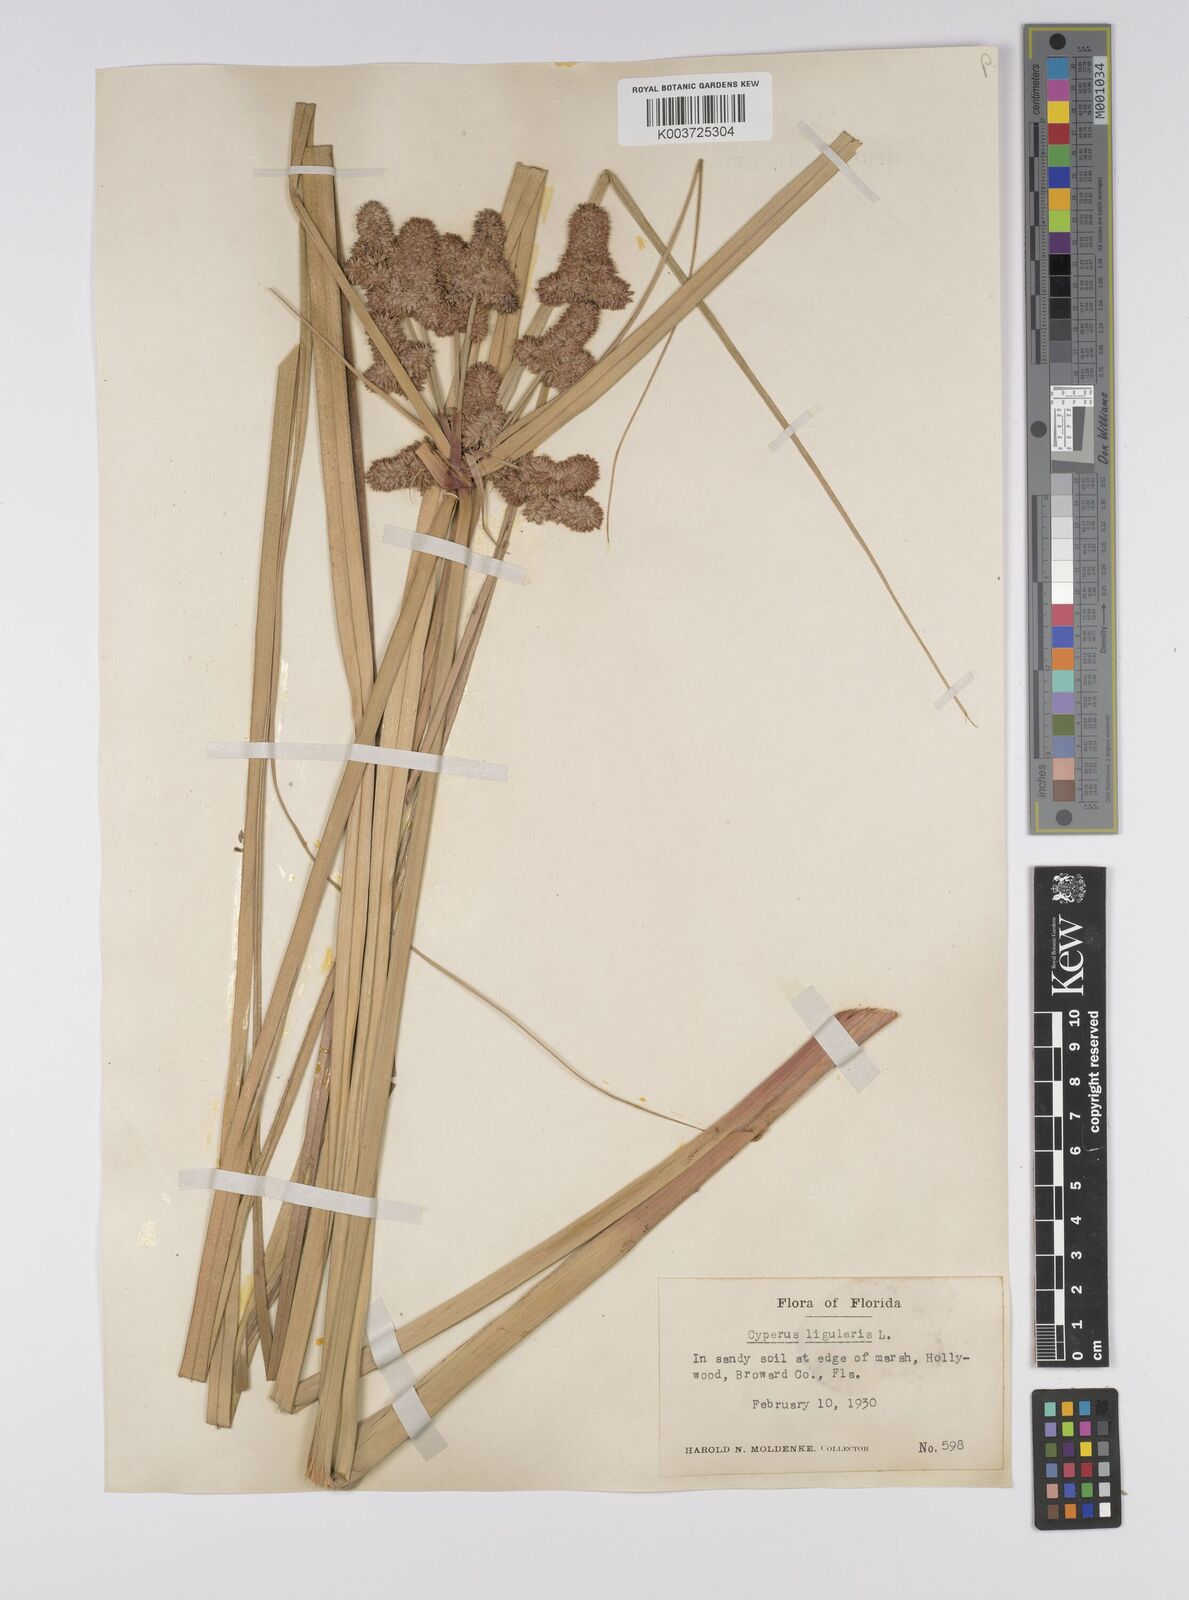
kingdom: Plantae
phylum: Tracheophyta
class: Liliopsida
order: Poales
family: Cyperaceae
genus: Cyperus
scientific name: Cyperus ligularis
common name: Swamp flat sedge
